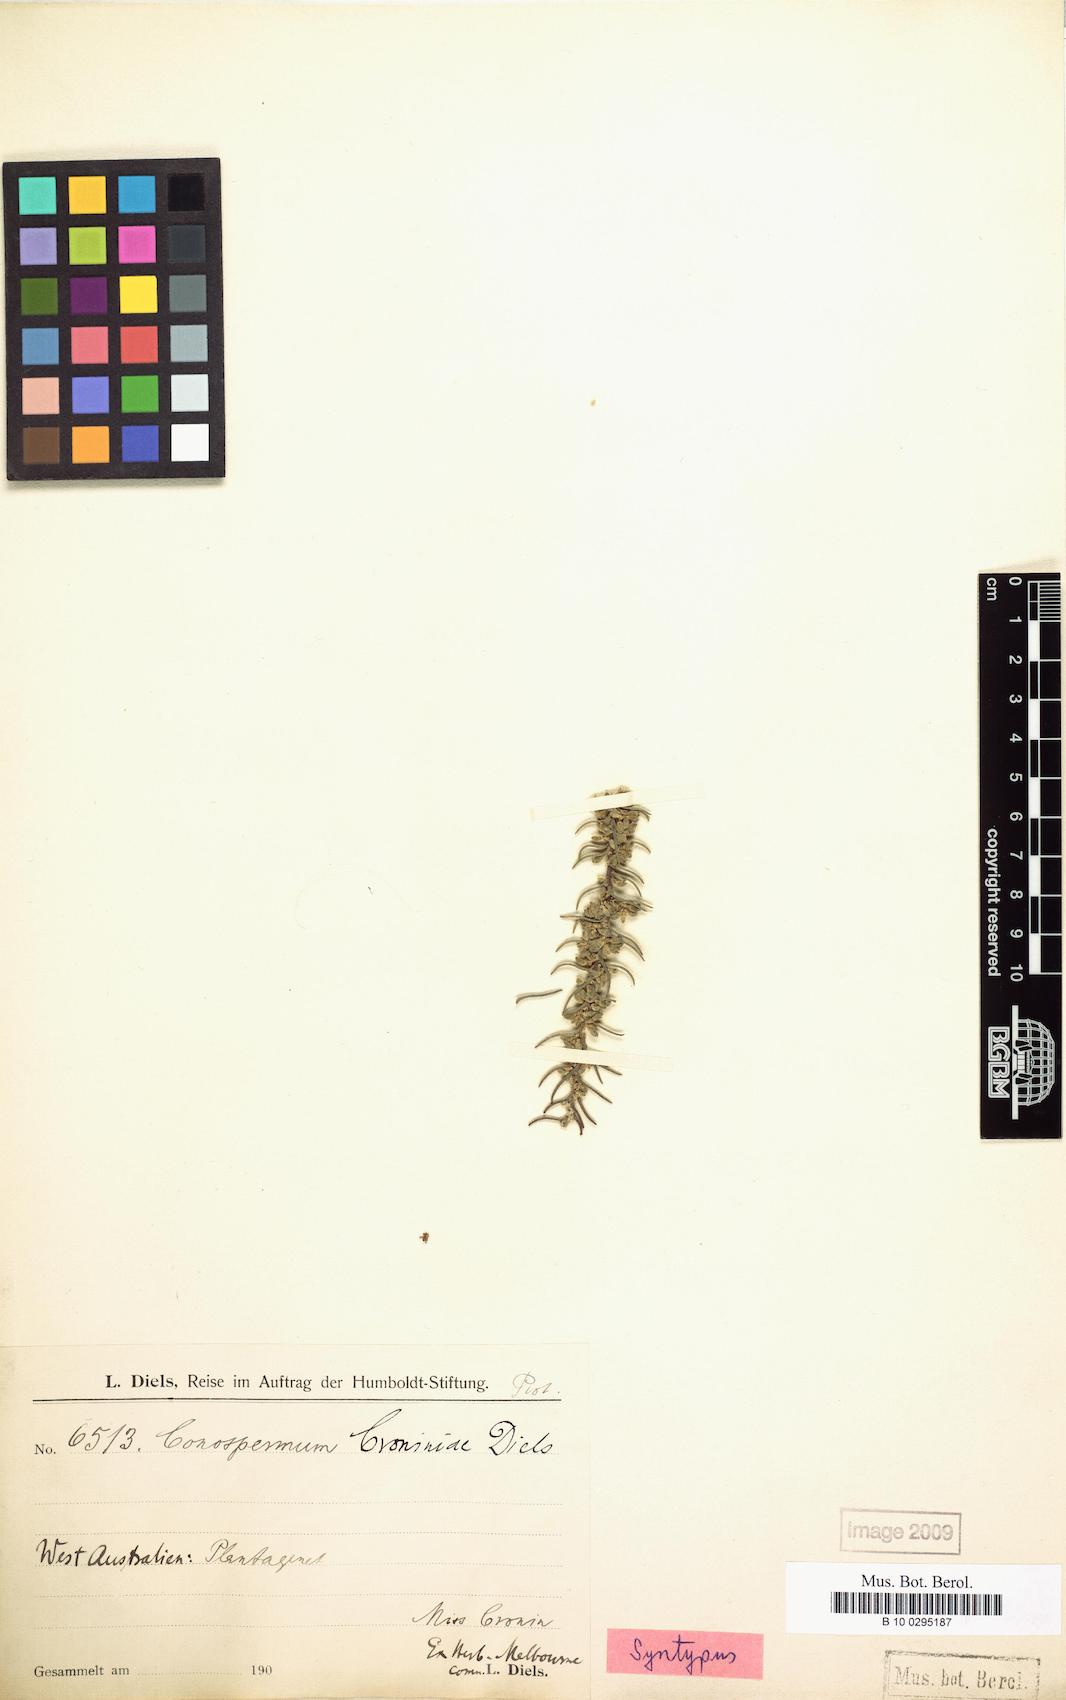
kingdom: Plantae
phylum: Tracheophyta
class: Magnoliopsida
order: Proteales
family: Proteaceae
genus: Conospermum
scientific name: Conospermum croniniae
